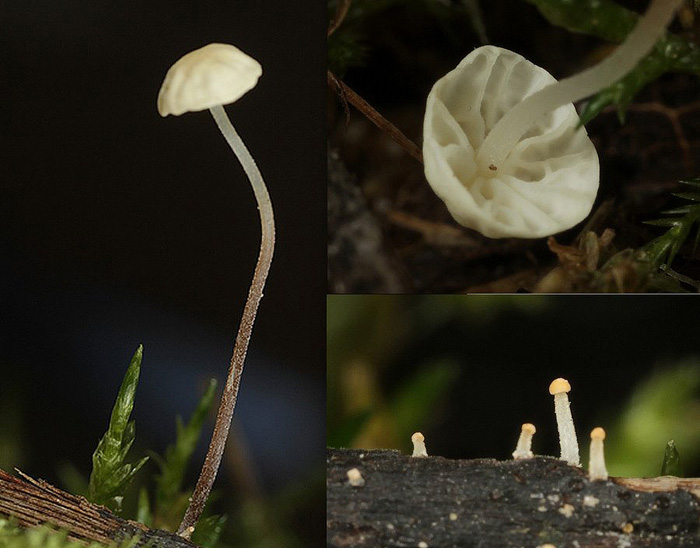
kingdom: Fungi
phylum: Basidiomycota
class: Agaricomycetes
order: Agaricales
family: Marasmiaceae
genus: Marasmius
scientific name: Marasmius epiphyllus
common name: blad-bruskhat
